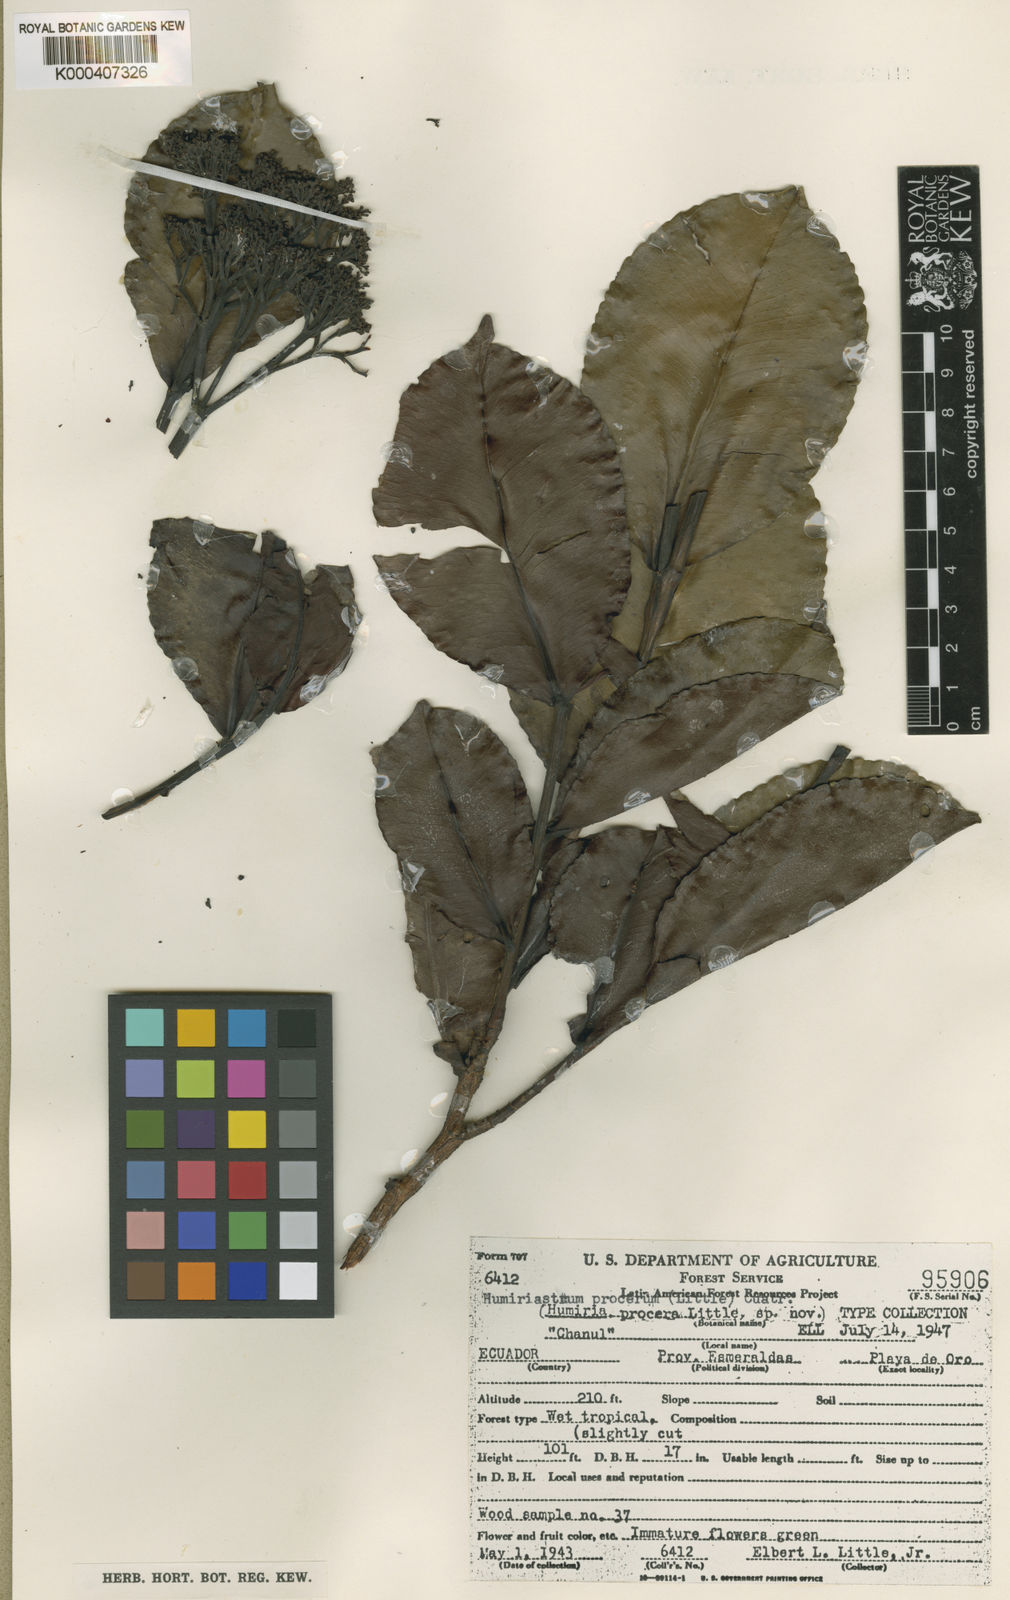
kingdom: Plantae
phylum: Tracheophyta
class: Magnoliopsida
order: Malpighiales
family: Humiriaceae
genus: Humiriastrum
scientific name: Humiriastrum procerum
